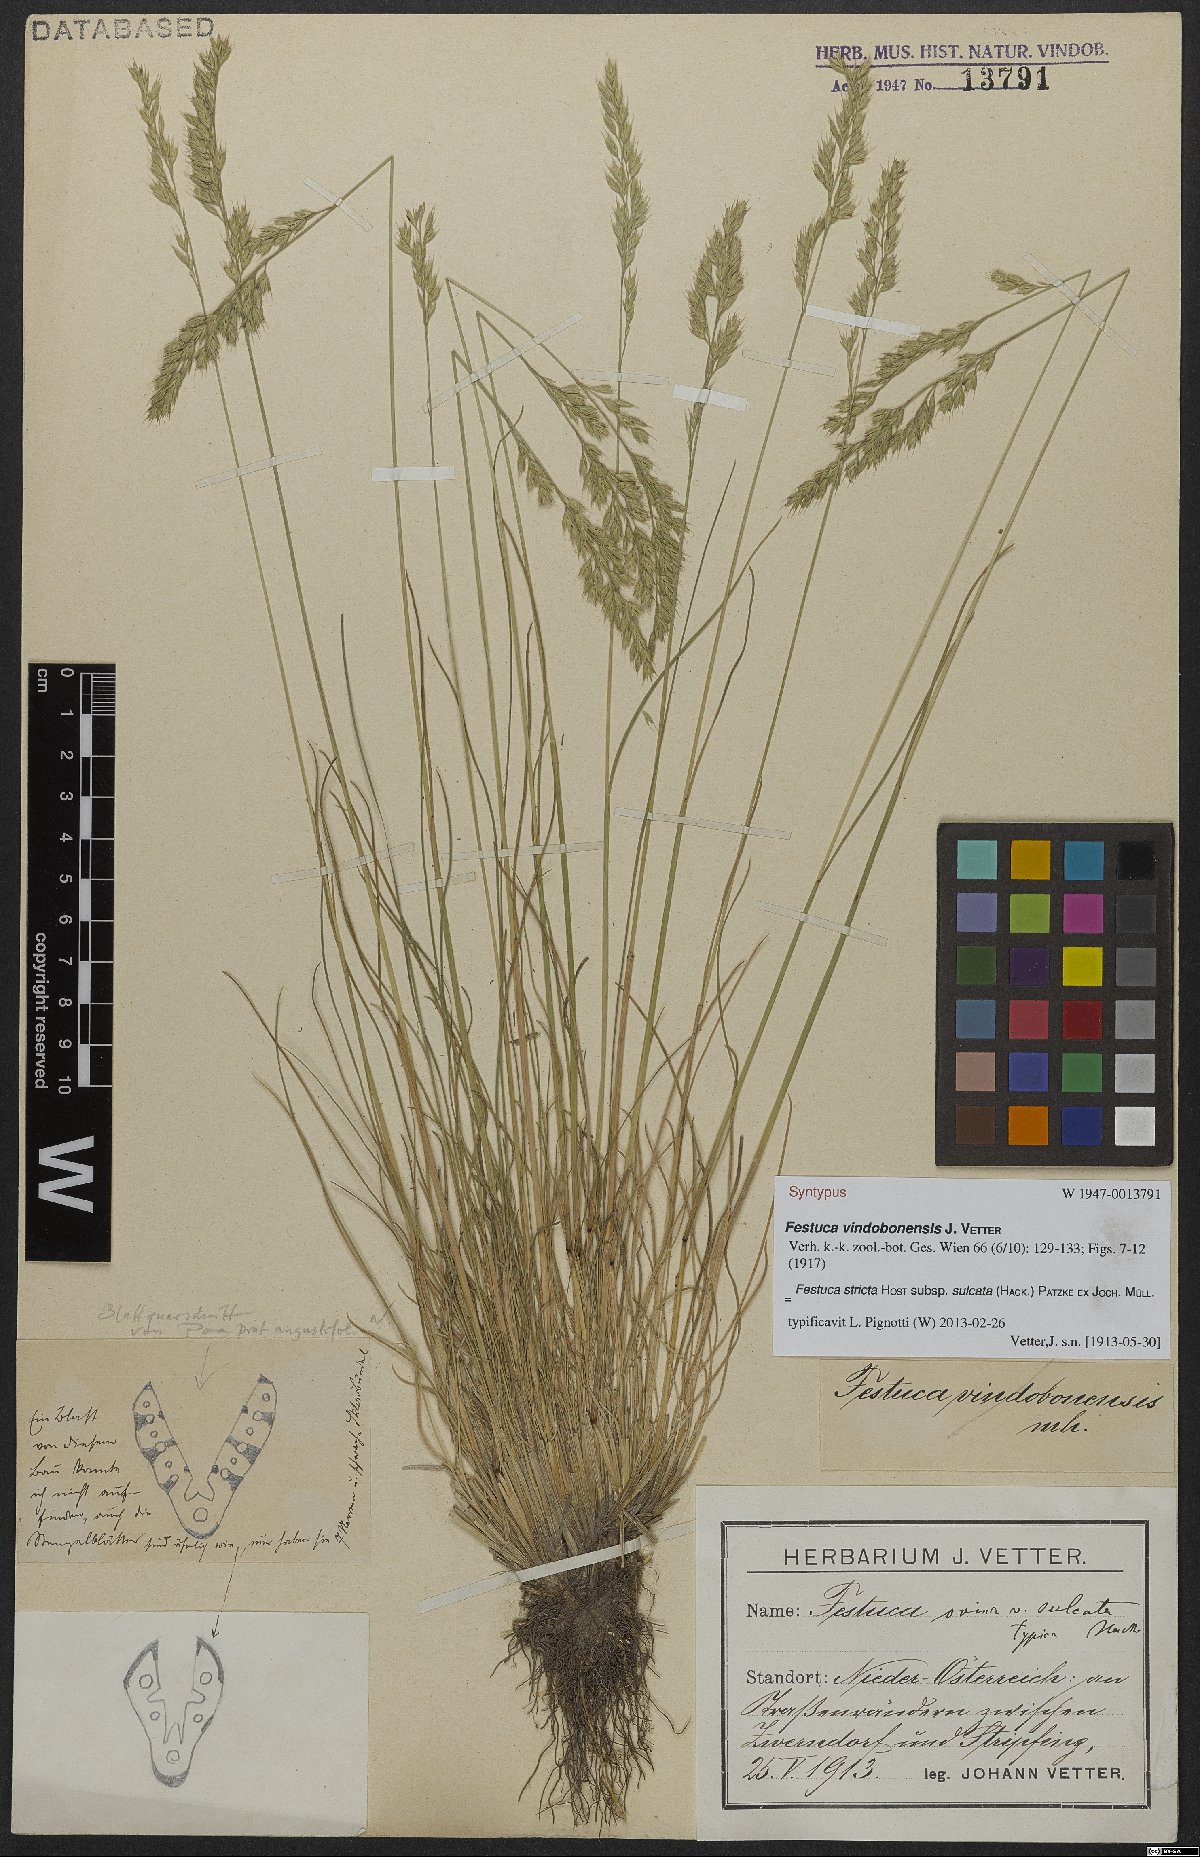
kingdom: Plantae
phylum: Tracheophyta
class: Liliopsida
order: Poales
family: Poaceae
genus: Festuca
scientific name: Festuca rupicola
